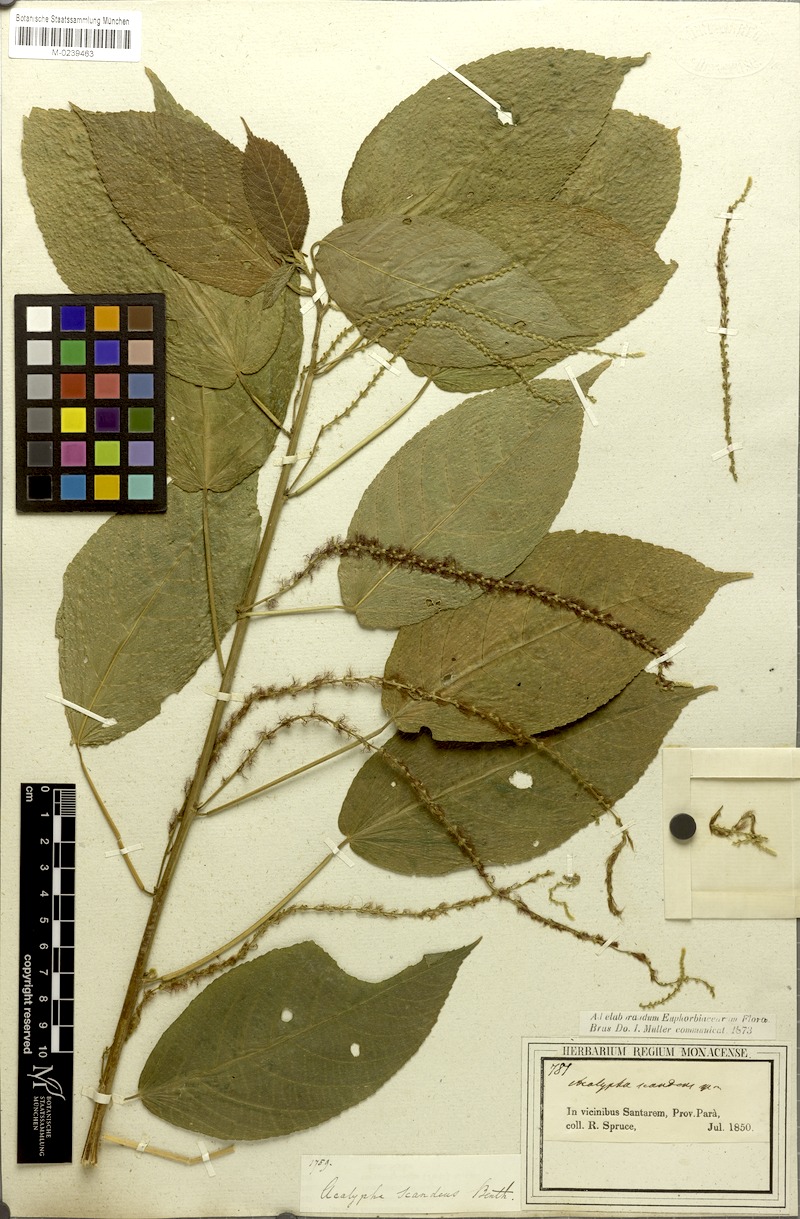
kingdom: Plantae
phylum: Tracheophyta
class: Magnoliopsida
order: Malpighiales
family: Euphorbiaceae
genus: Acalypha
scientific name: Acalypha scandens
